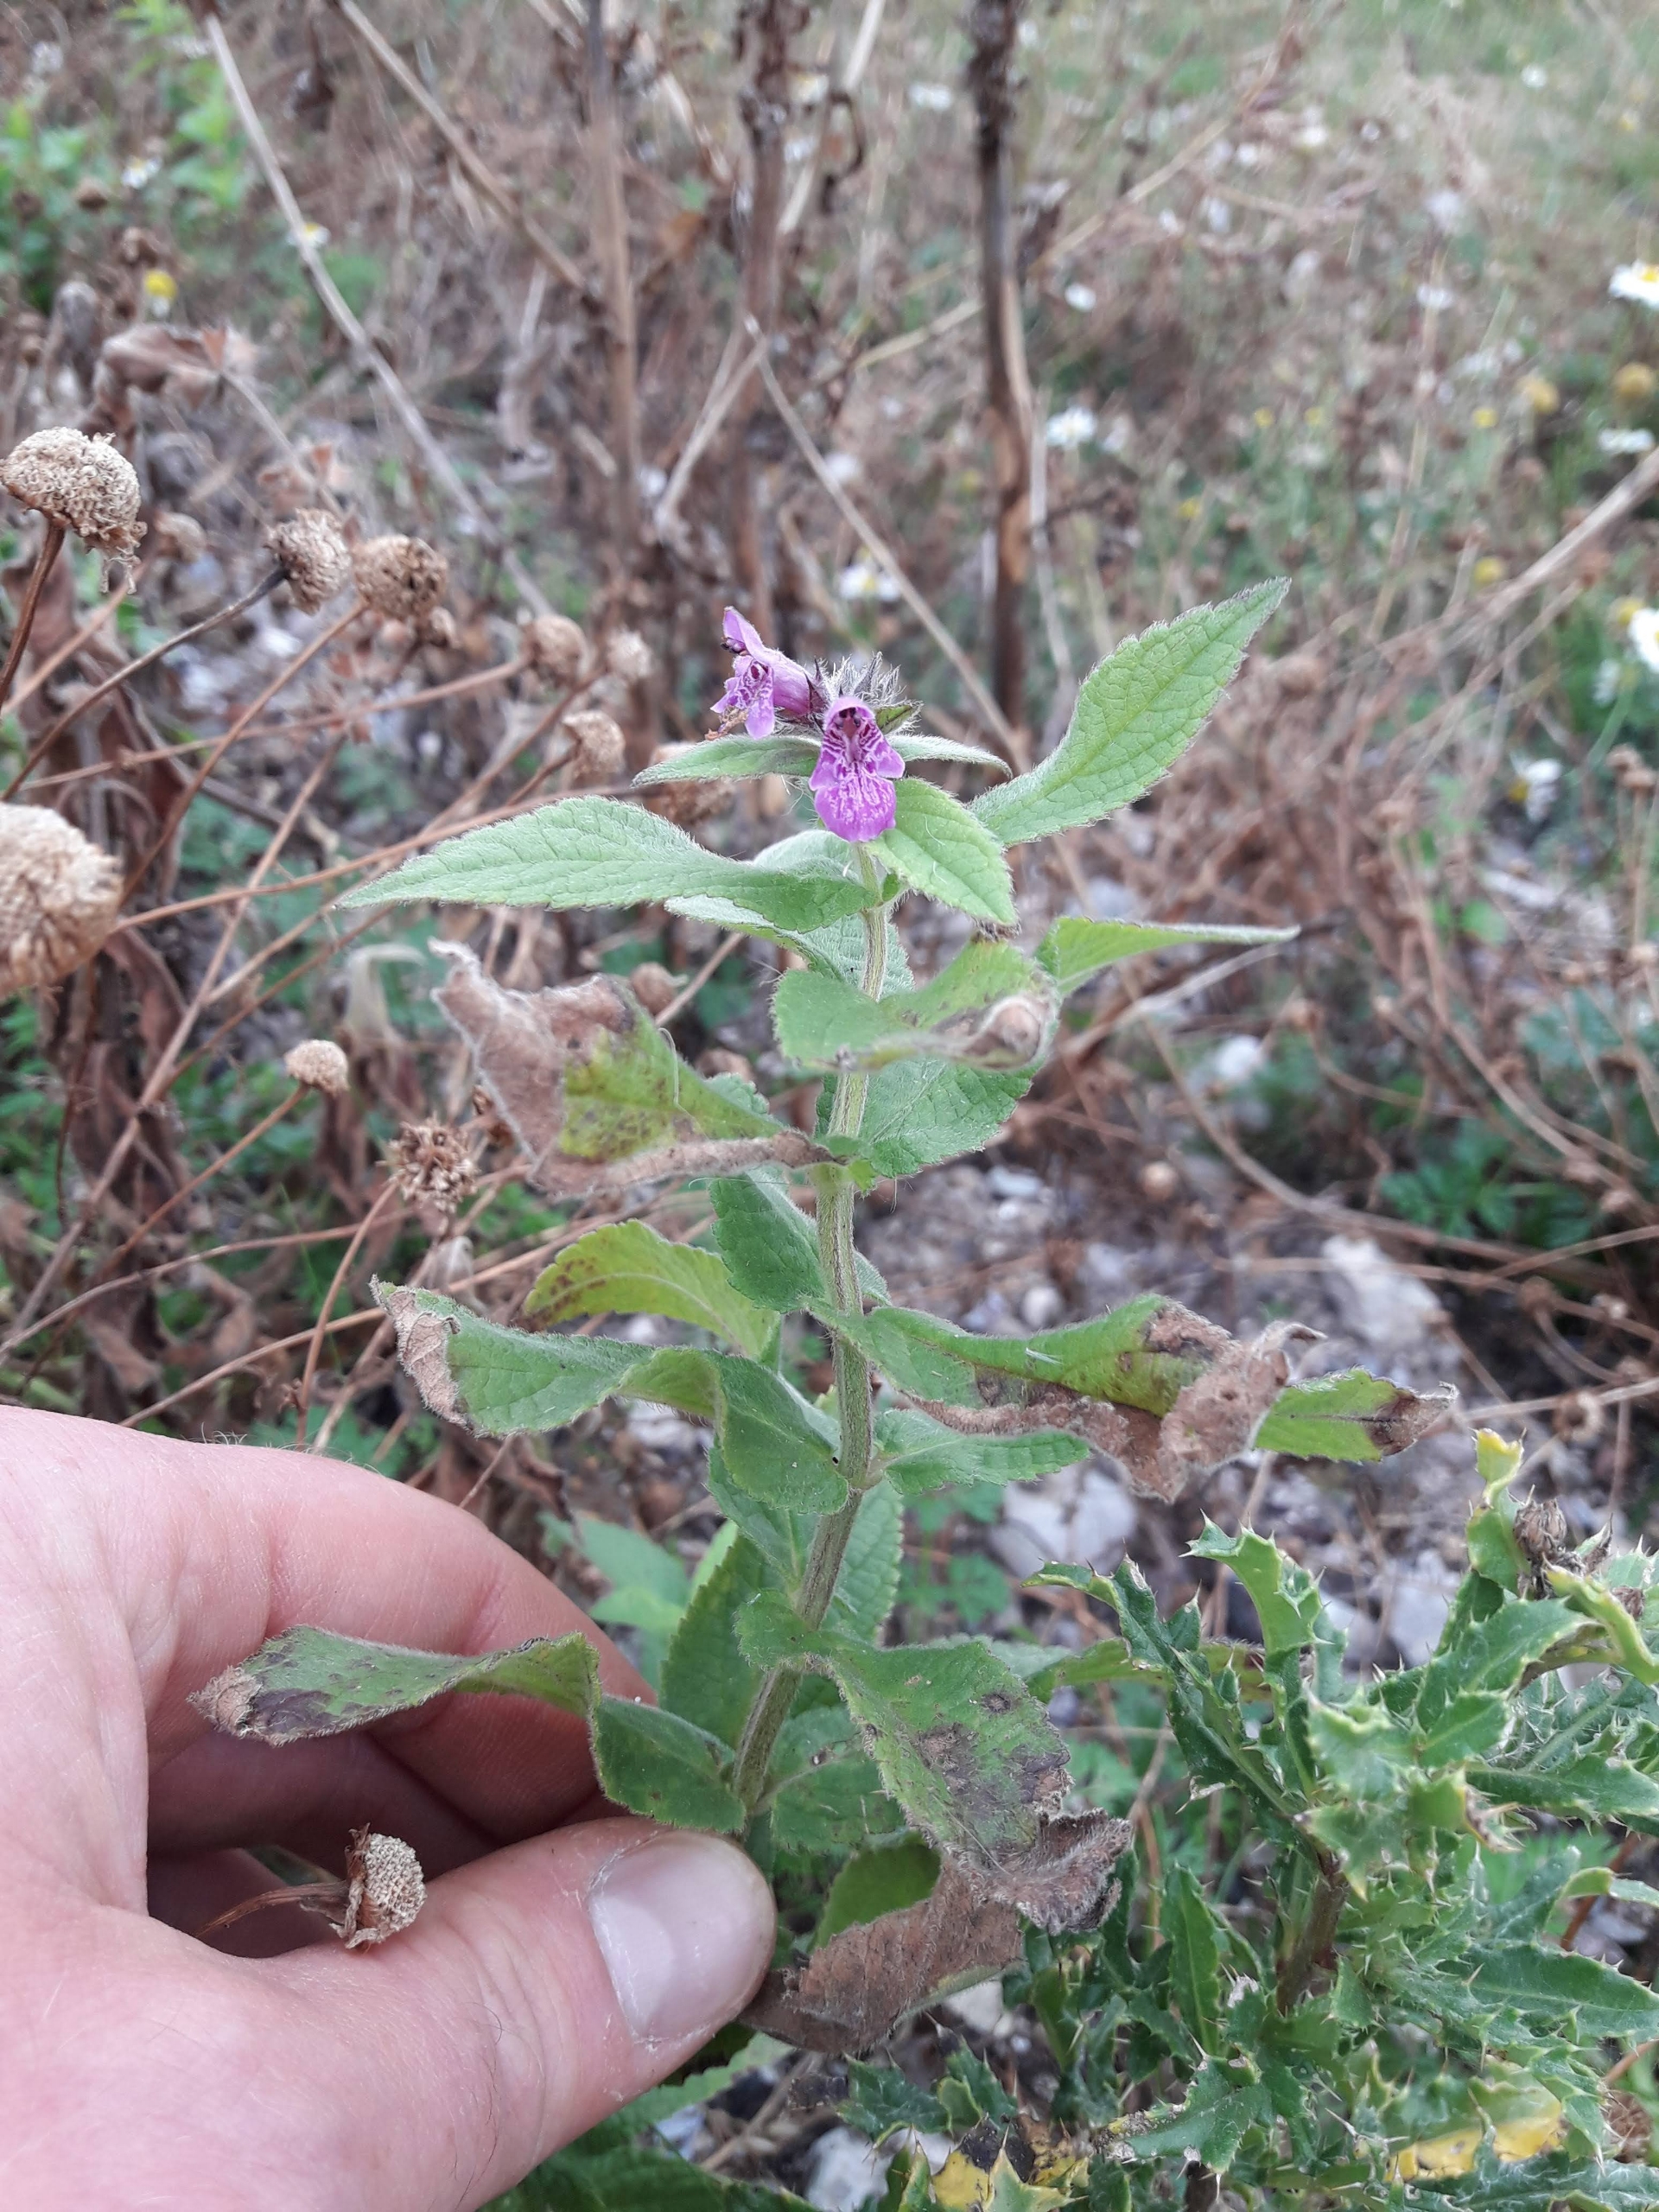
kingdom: Plantae
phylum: Tracheophyta
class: Magnoliopsida
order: Lamiales
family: Lamiaceae
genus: Stachys
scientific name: Stachys palustris
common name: Kær-galtetand
